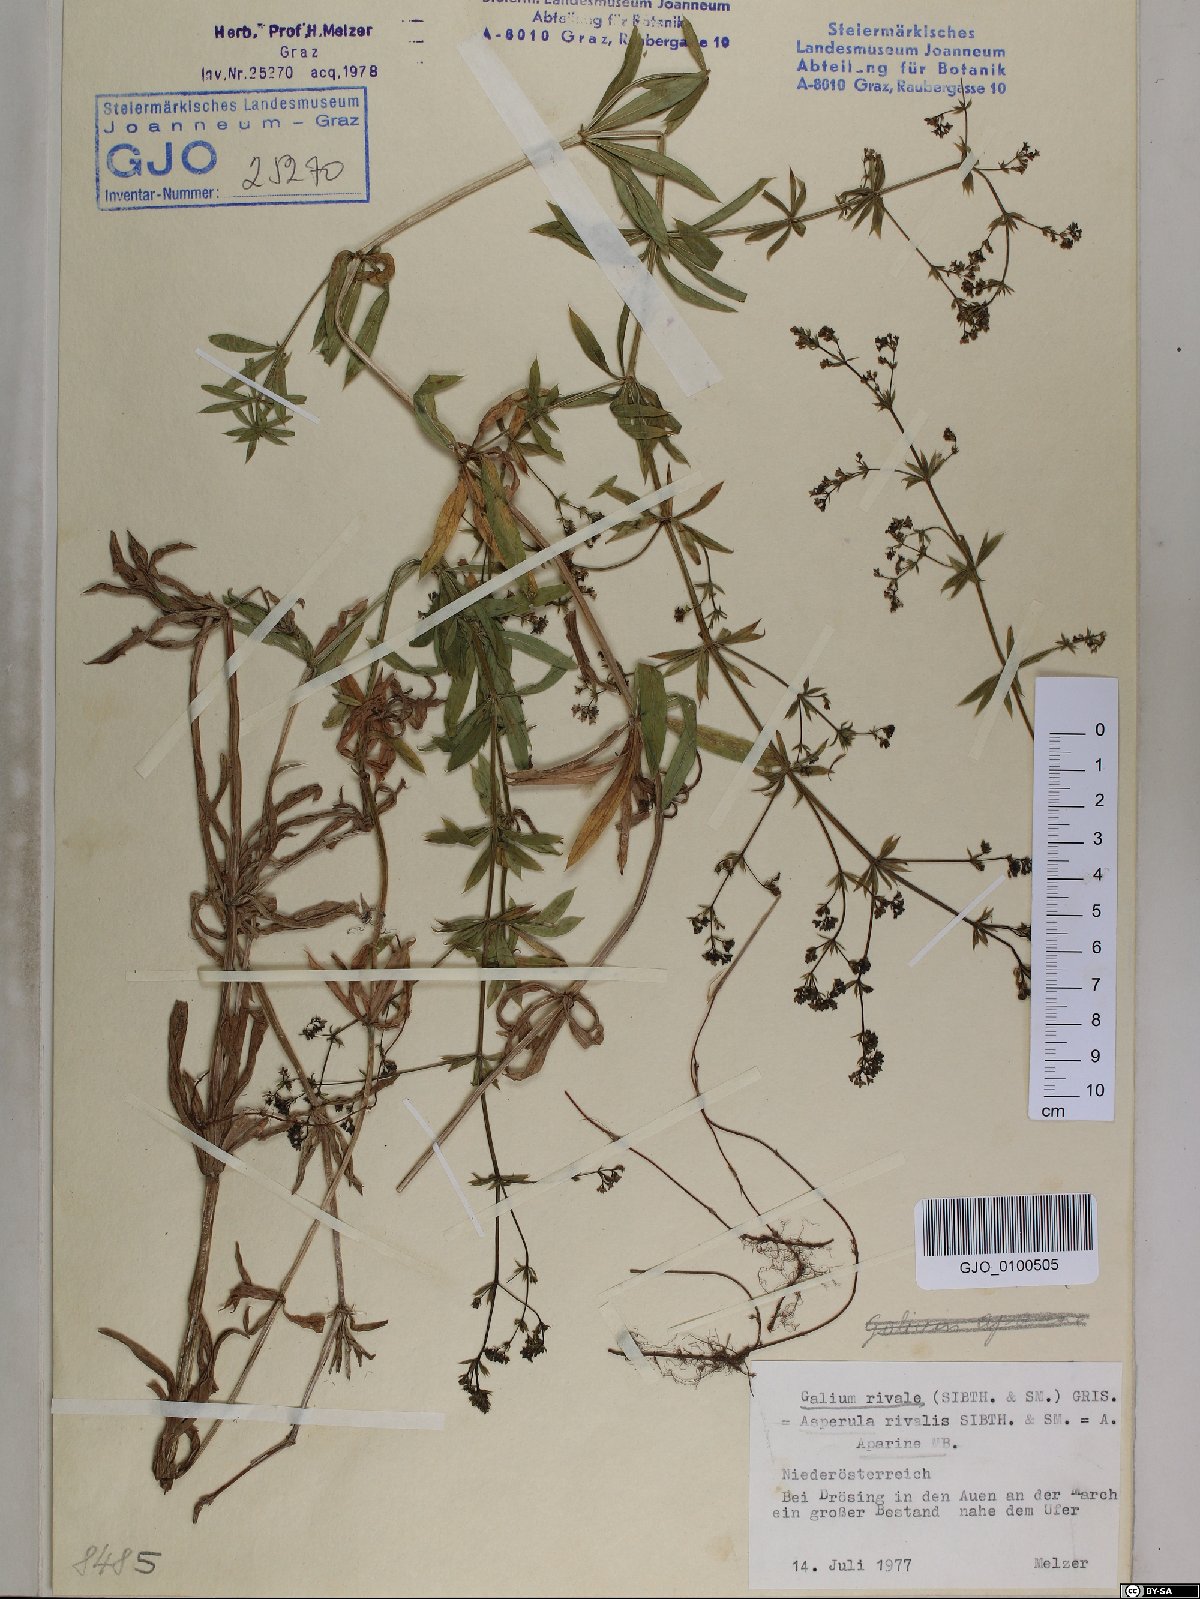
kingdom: Plantae
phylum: Tracheophyta
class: Magnoliopsida
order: Gentianales
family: Rubiaceae
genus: Galium
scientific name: Galium rivale
